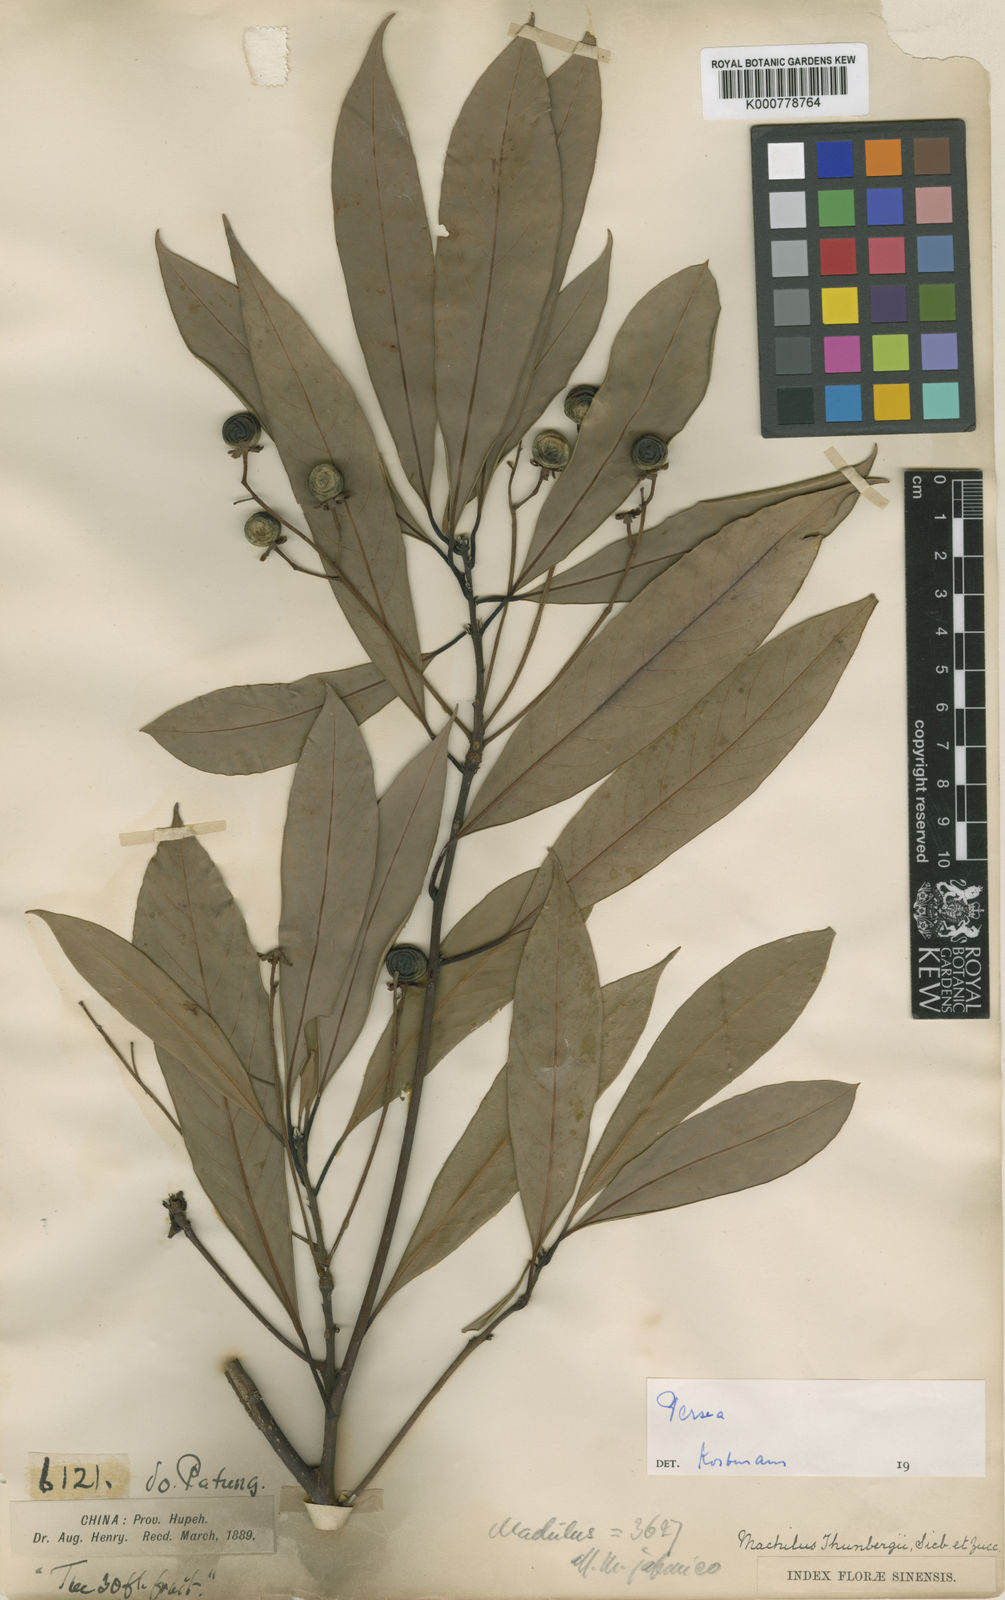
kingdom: Plantae
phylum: Tracheophyta
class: Magnoliopsida
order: Laurales
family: Lauraceae
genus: Machilus
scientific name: Machilus ichangensis
